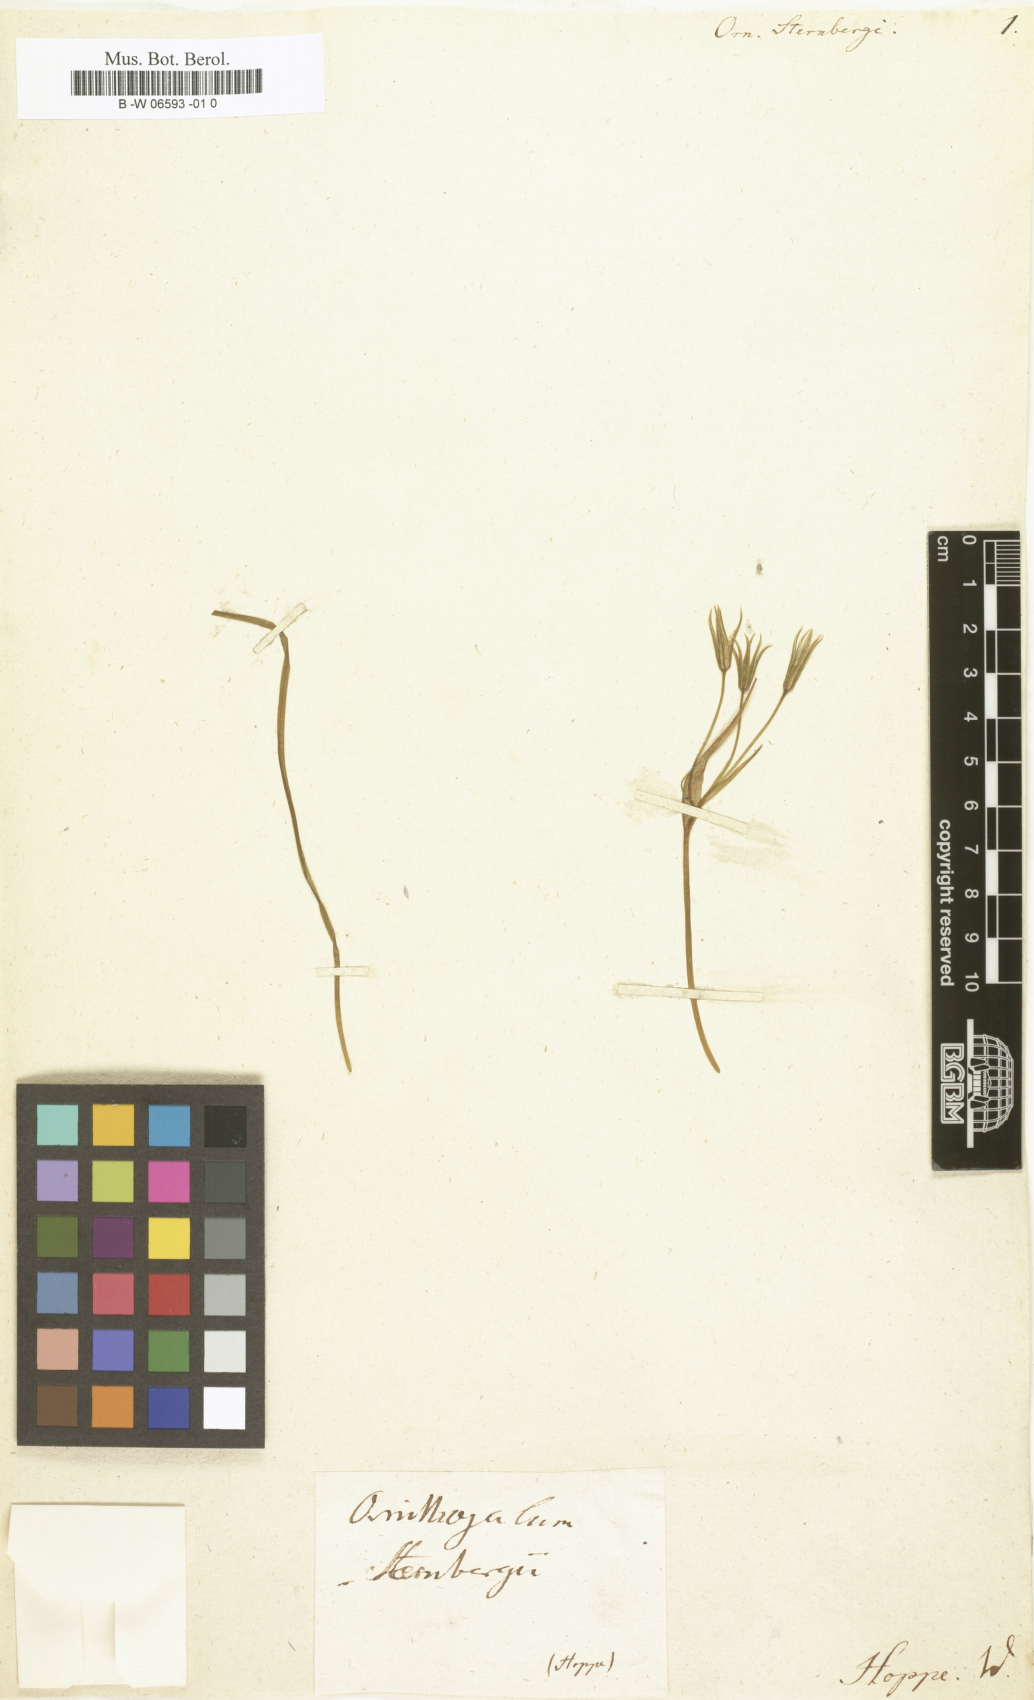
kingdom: Plantae
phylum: Tracheophyta
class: Liliopsida
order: Liliales
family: Liliaceae
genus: Gagea
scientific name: Gagea minima
